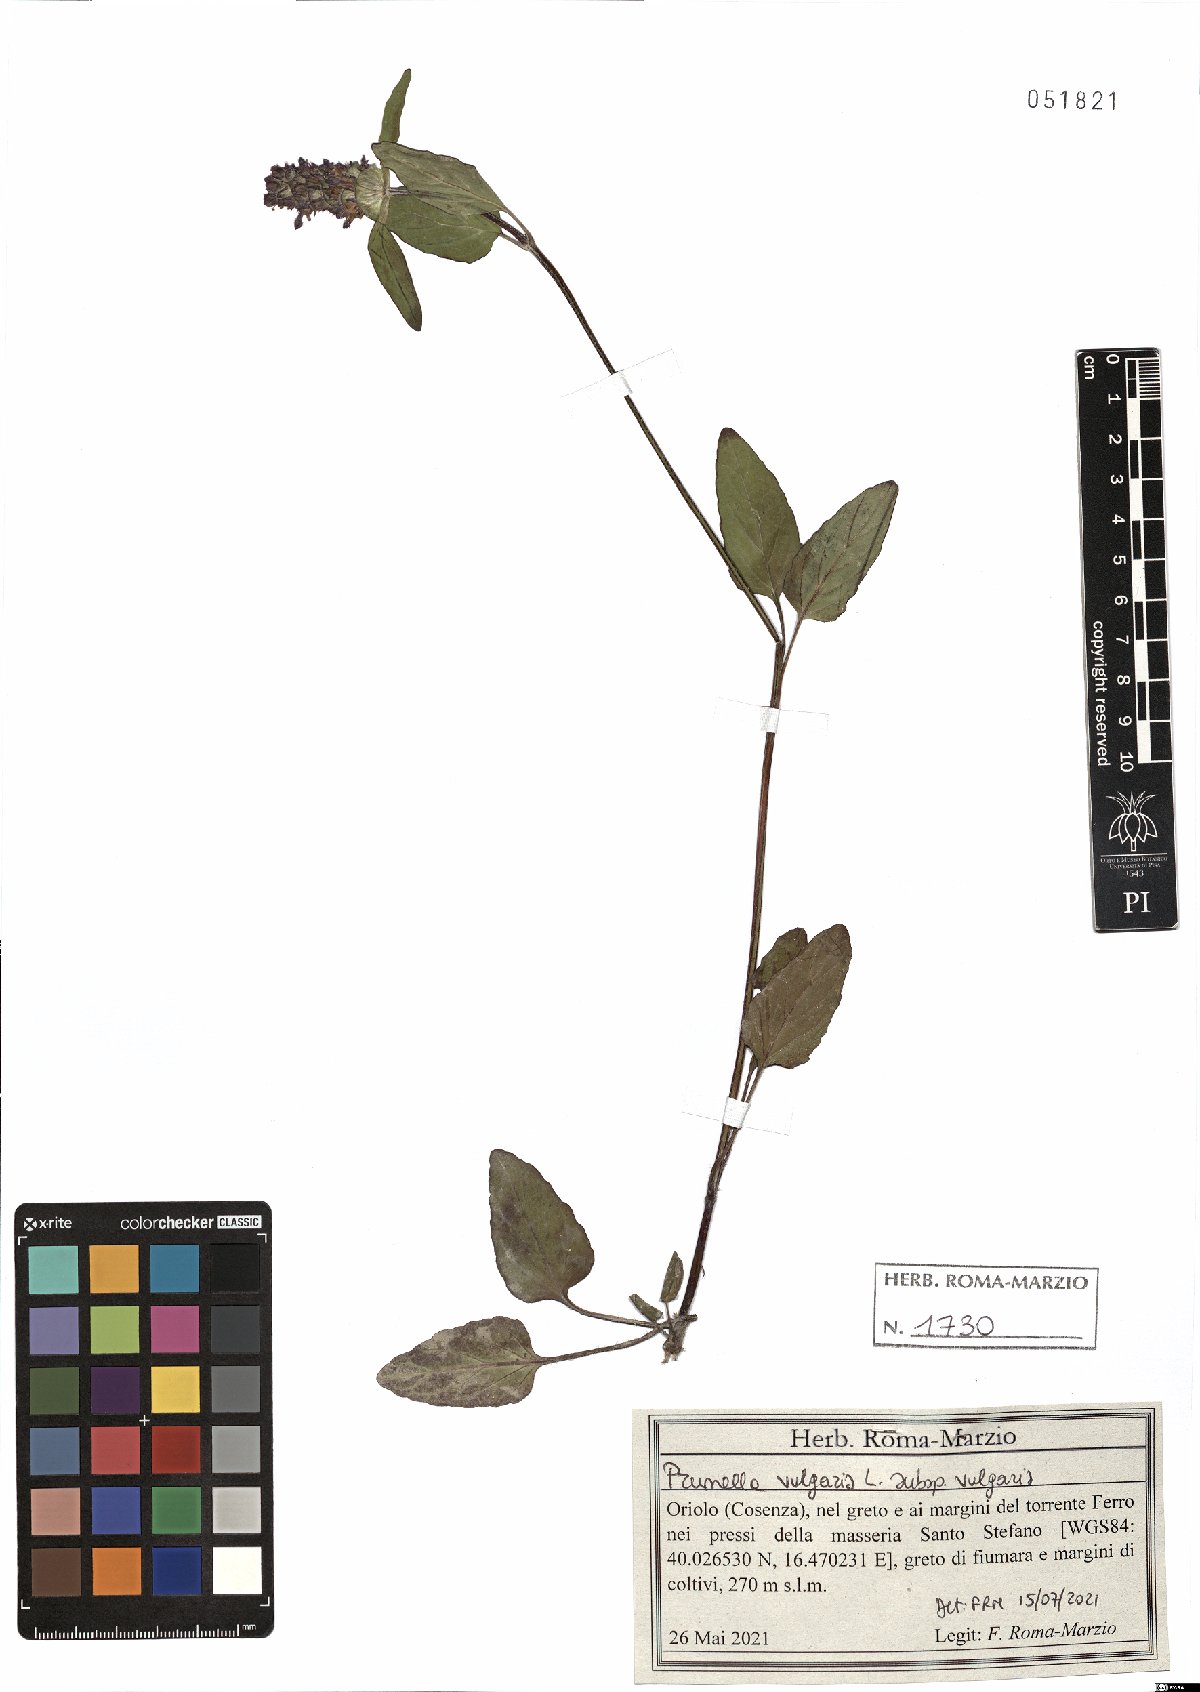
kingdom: Plantae
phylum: Tracheophyta
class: Magnoliopsida
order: Lamiales
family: Lamiaceae
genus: Prunella
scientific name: Prunella vulgaris
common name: Heal-all
